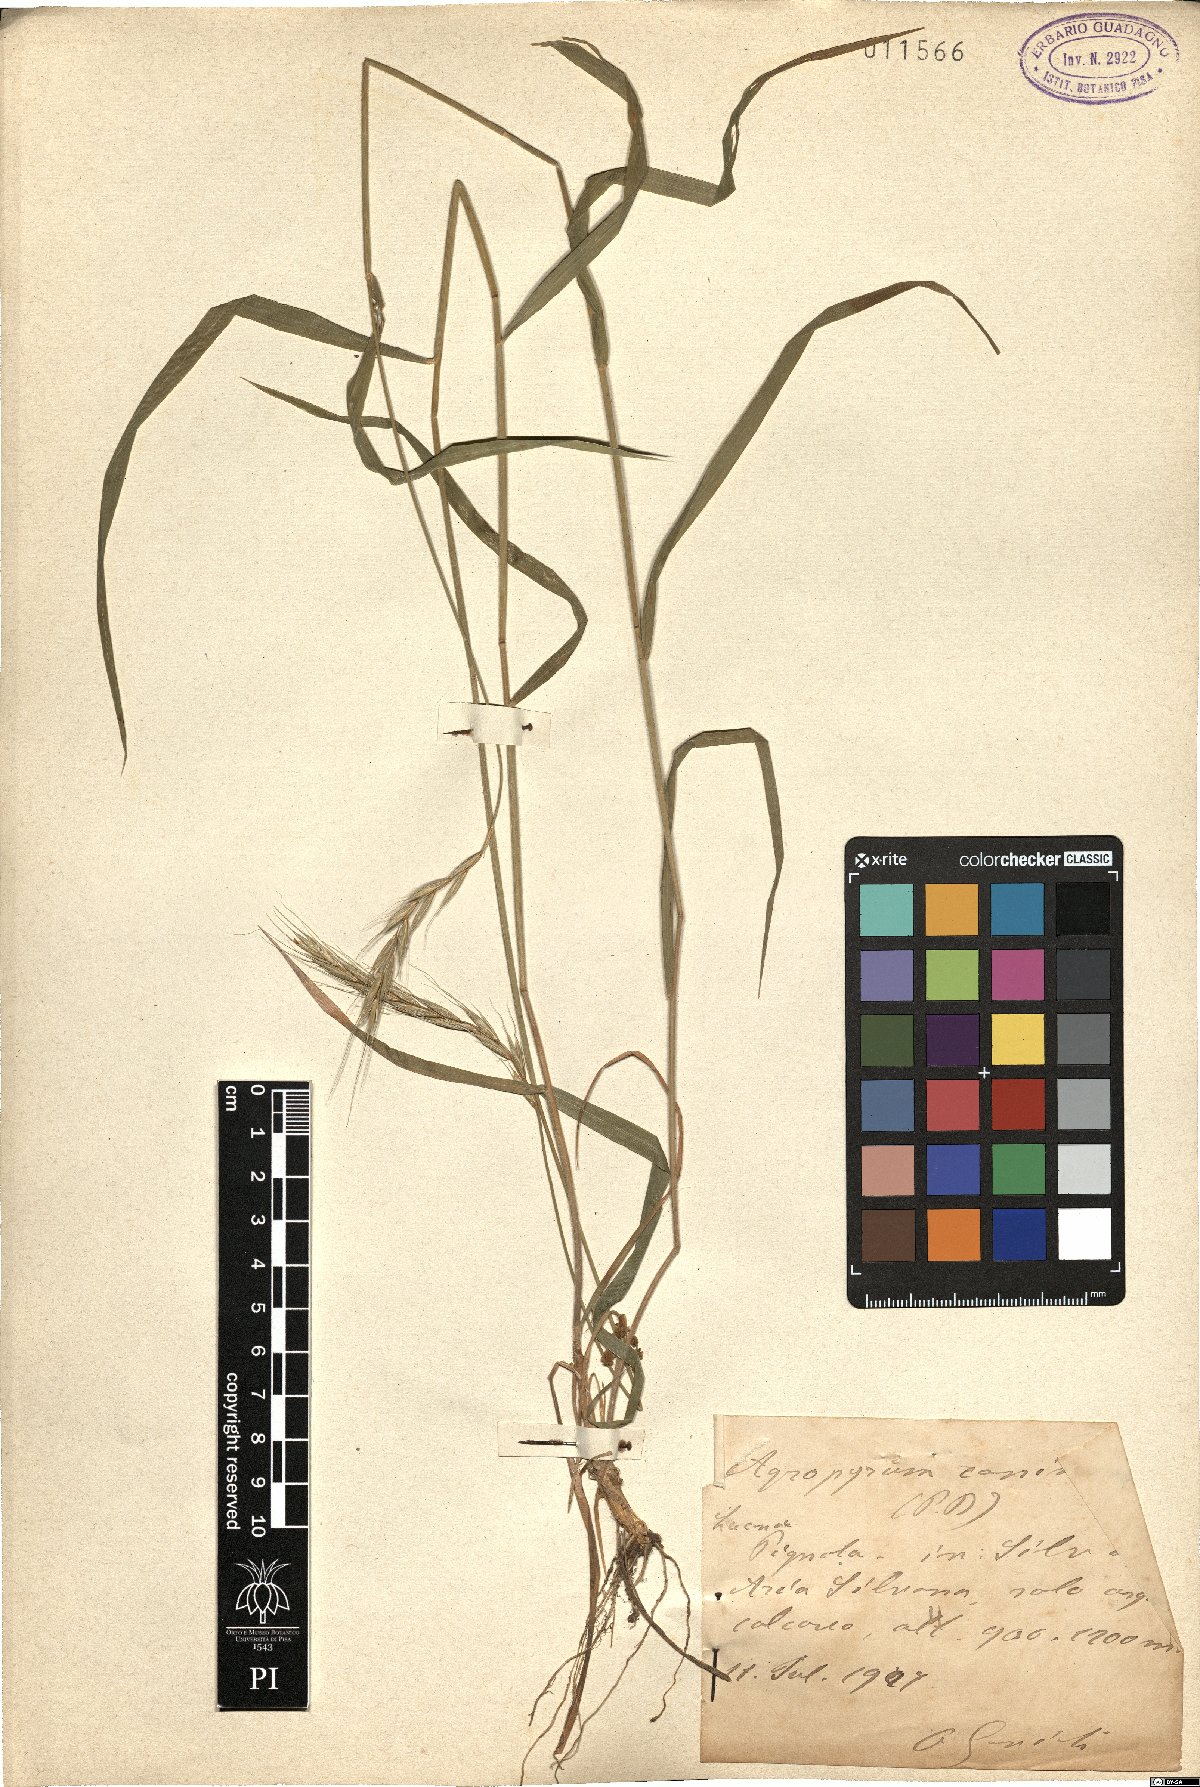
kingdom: Plantae
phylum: Tracheophyta
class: Liliopsida
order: Poales
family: Poaceae
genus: Elymus
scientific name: Elymus caninus
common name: Bearded couch
